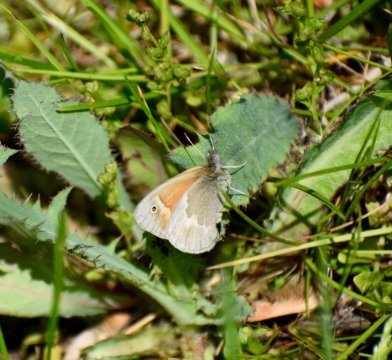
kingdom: Animalia
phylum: Arthropoda
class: Insecta
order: Lepidoptera
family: Nymphalidae
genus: Coenonympha
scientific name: Coenonympha california
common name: California Ringlet
